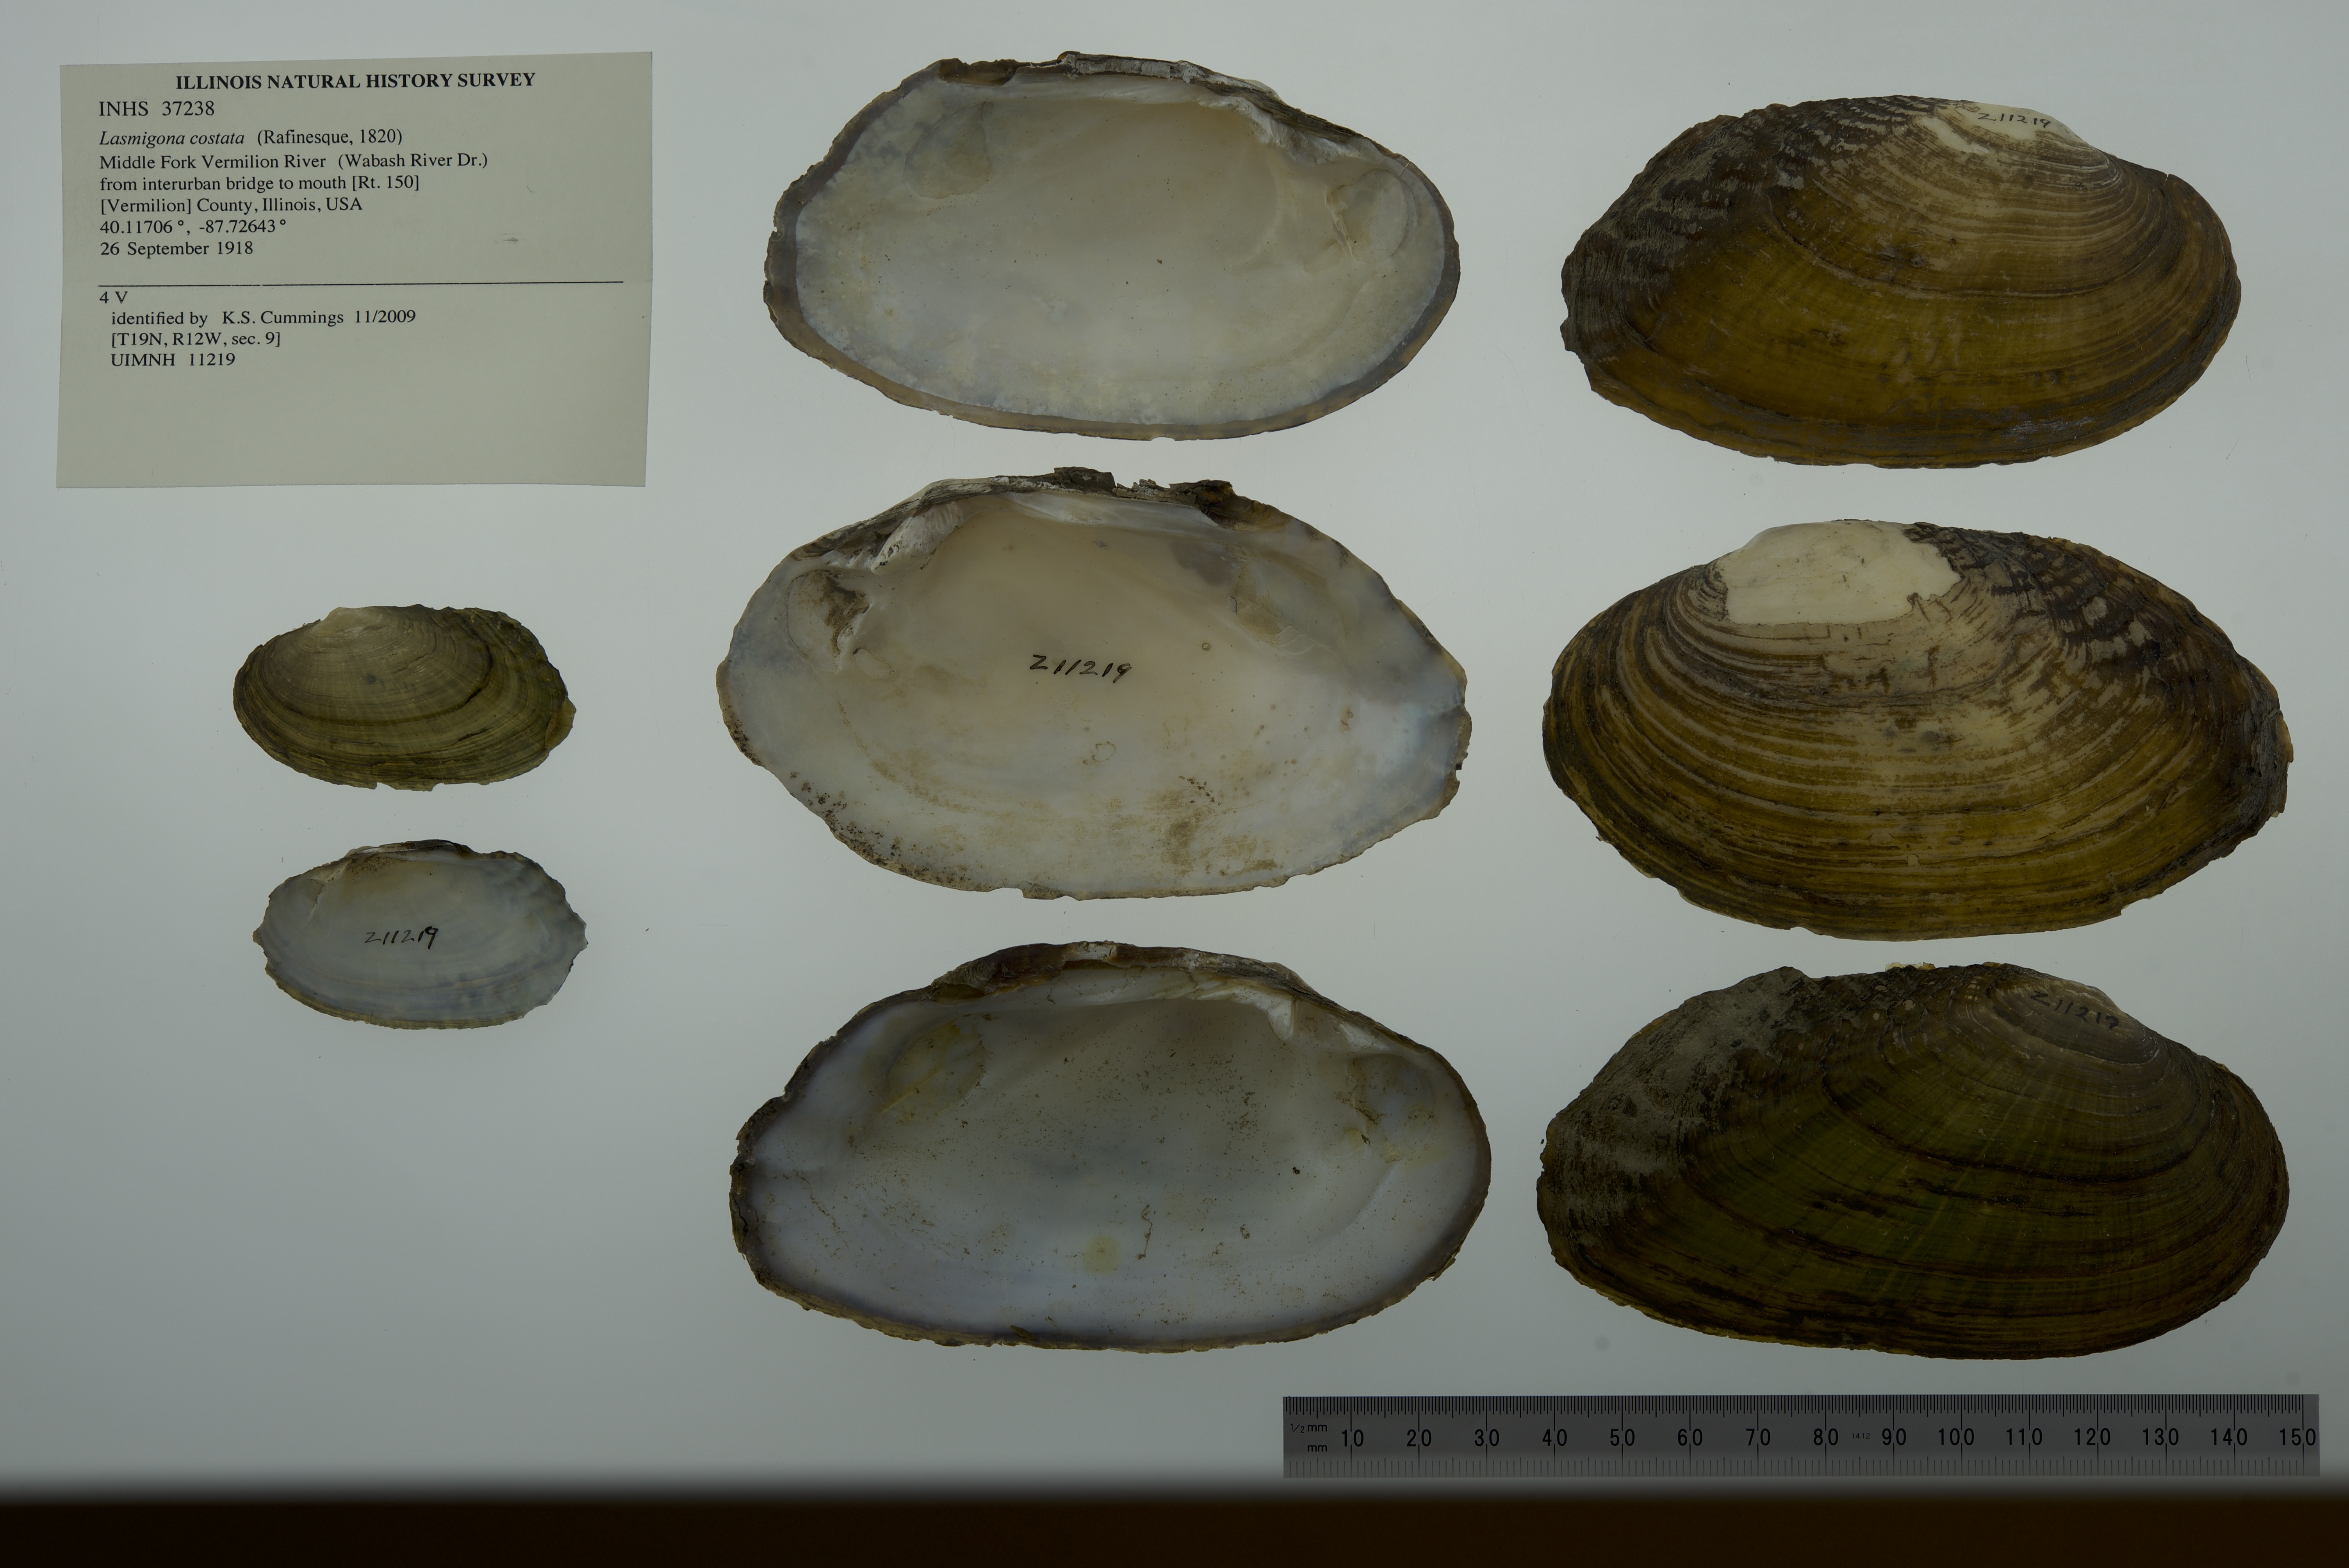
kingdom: Animalia
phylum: Mollusca
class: Bivalvia
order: Unionida
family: Unionidae
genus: Lasmigona
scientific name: Lasmigona costata
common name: Flutedshell
